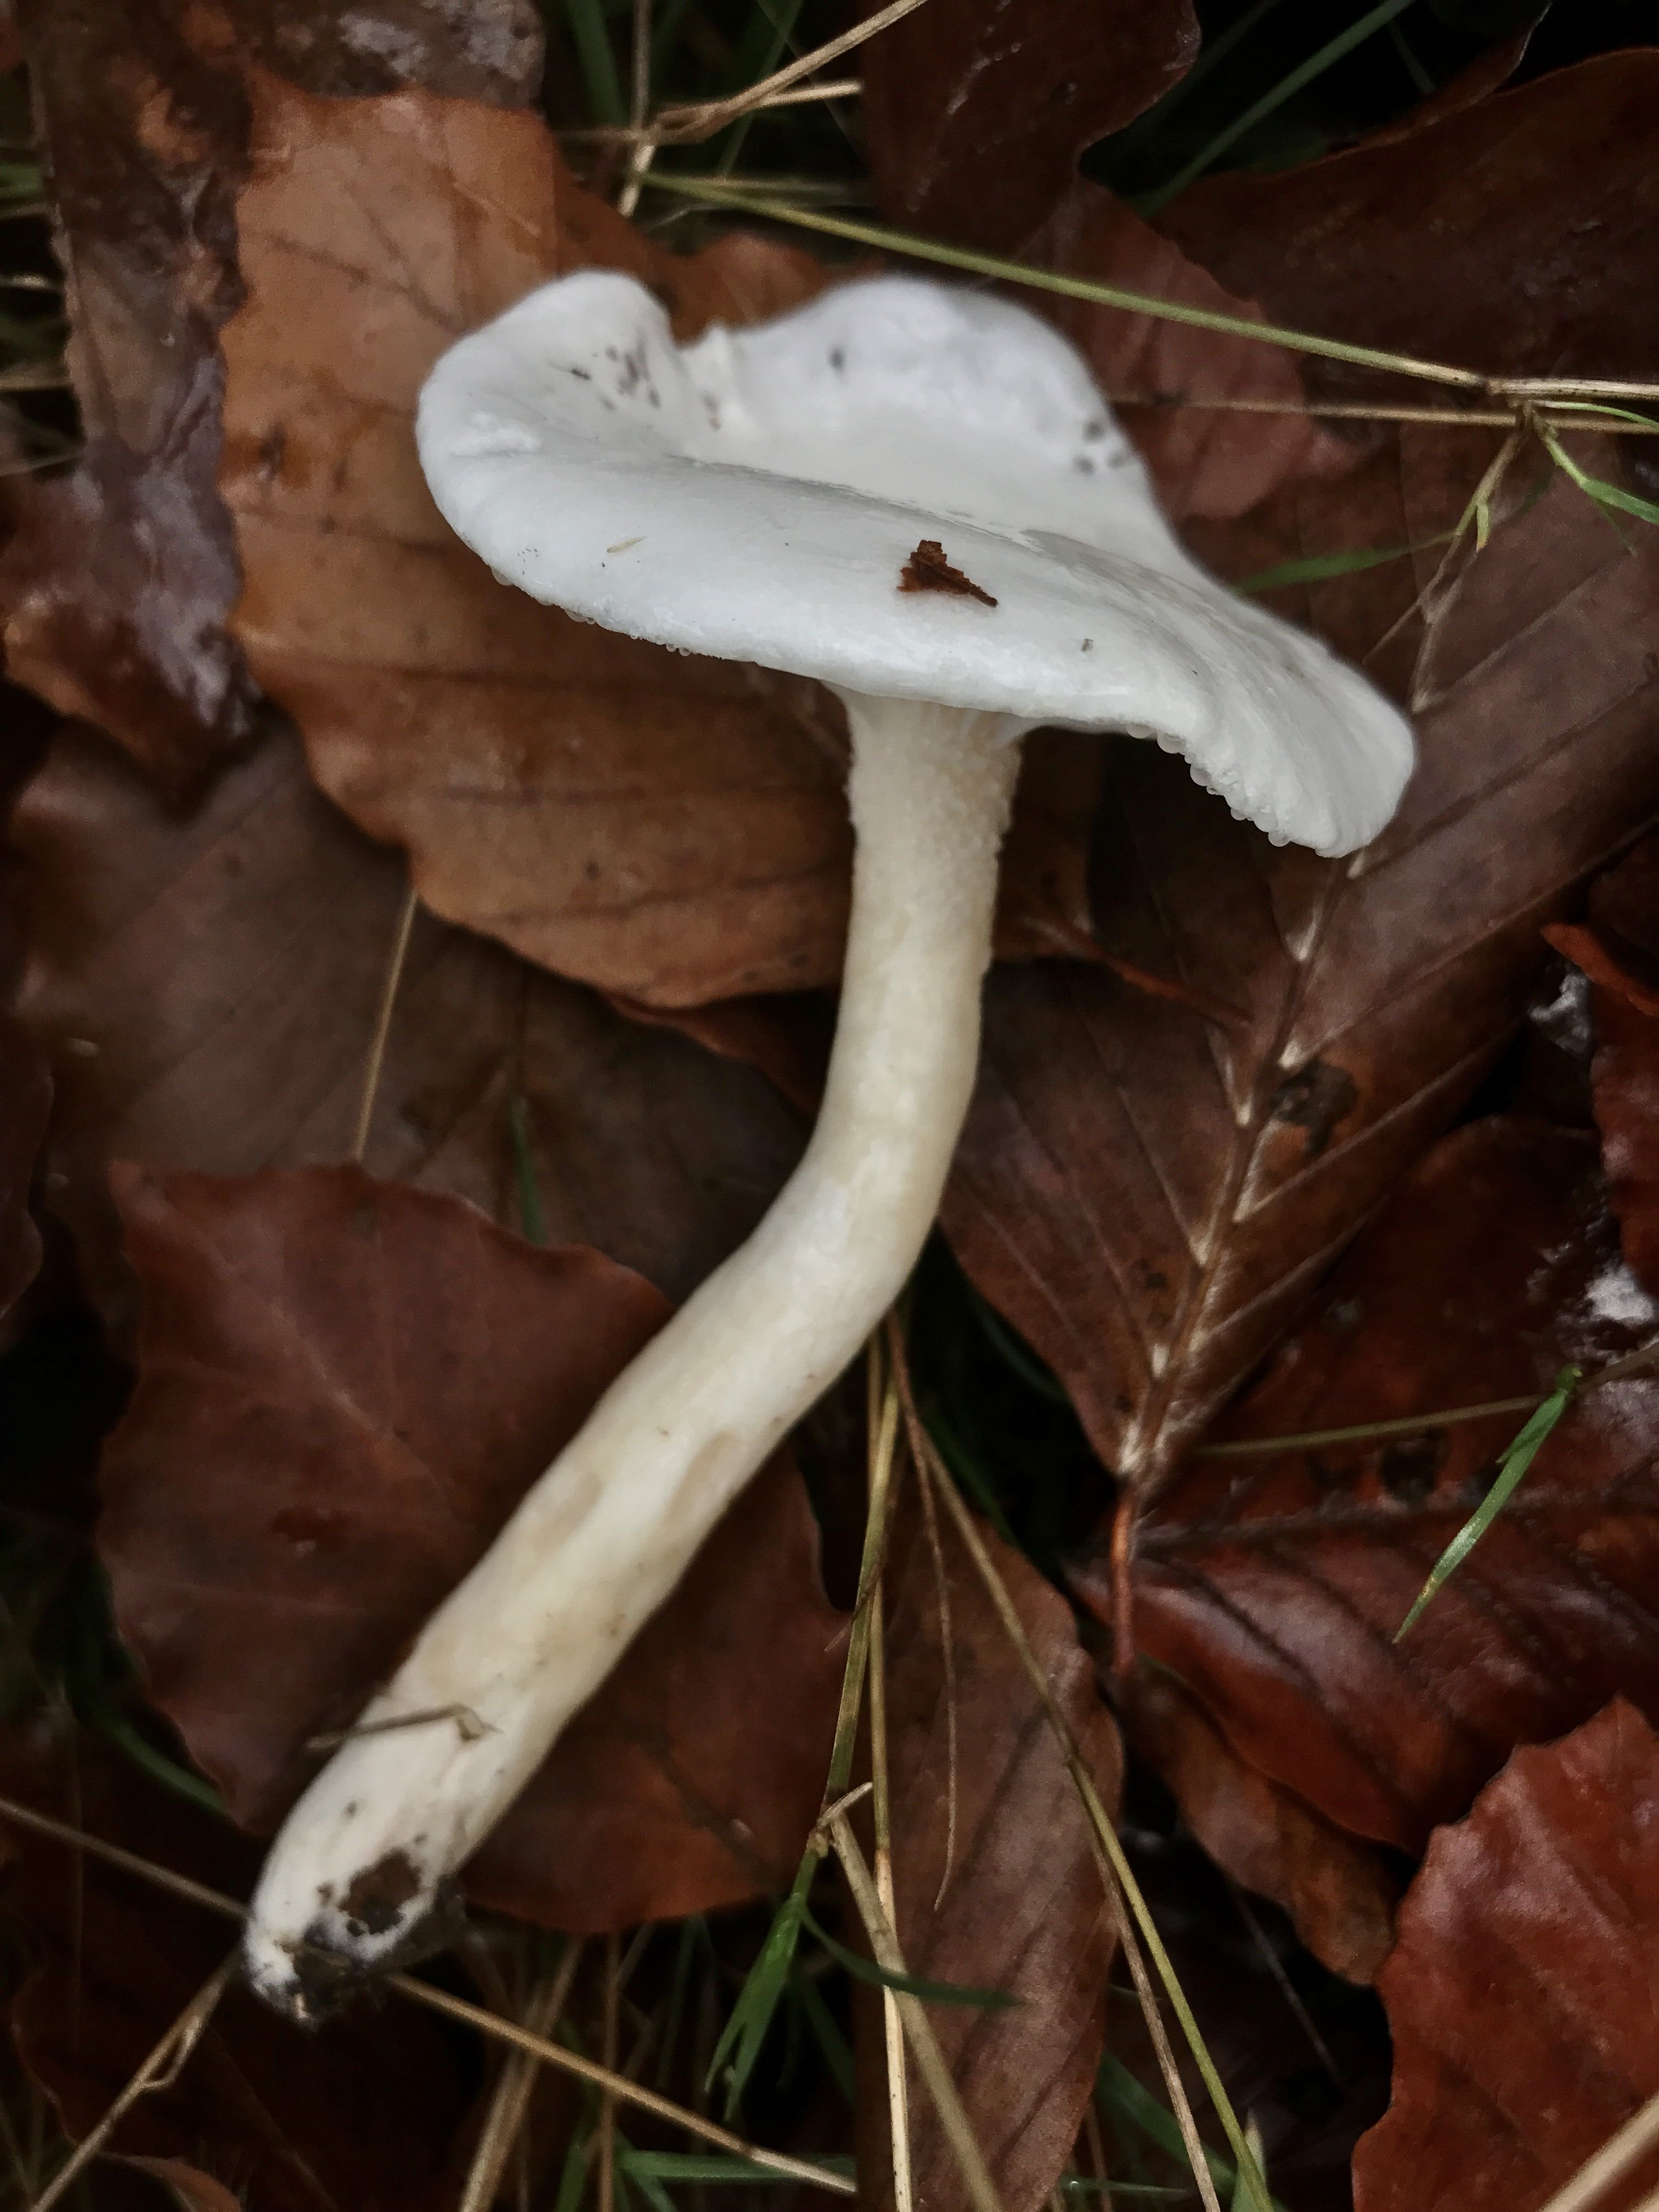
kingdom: Fungi
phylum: Basidiomycota
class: Agaricomycetes
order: Agaricales
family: Hygrophoraceae
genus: Hygrophorus
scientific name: Hygrophorus eburneus
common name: elfenbens-sneglehat
